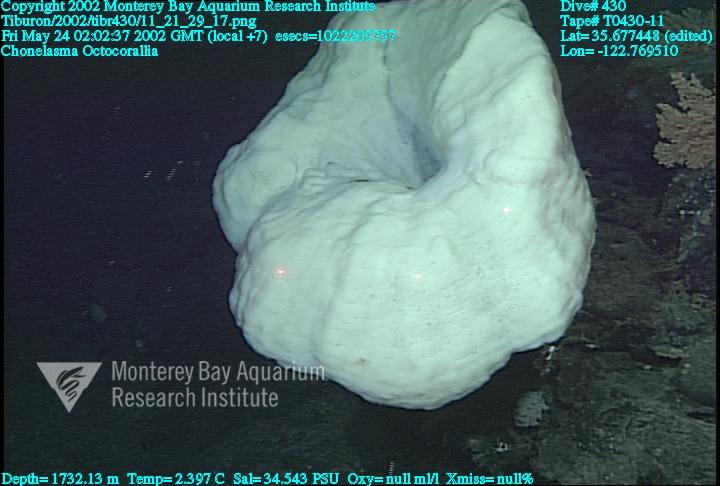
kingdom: Animalia
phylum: Porifera
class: Hexactinellida
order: Sceptrulophora
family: Euretidae
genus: Chonelasma
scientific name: Chonelasma
